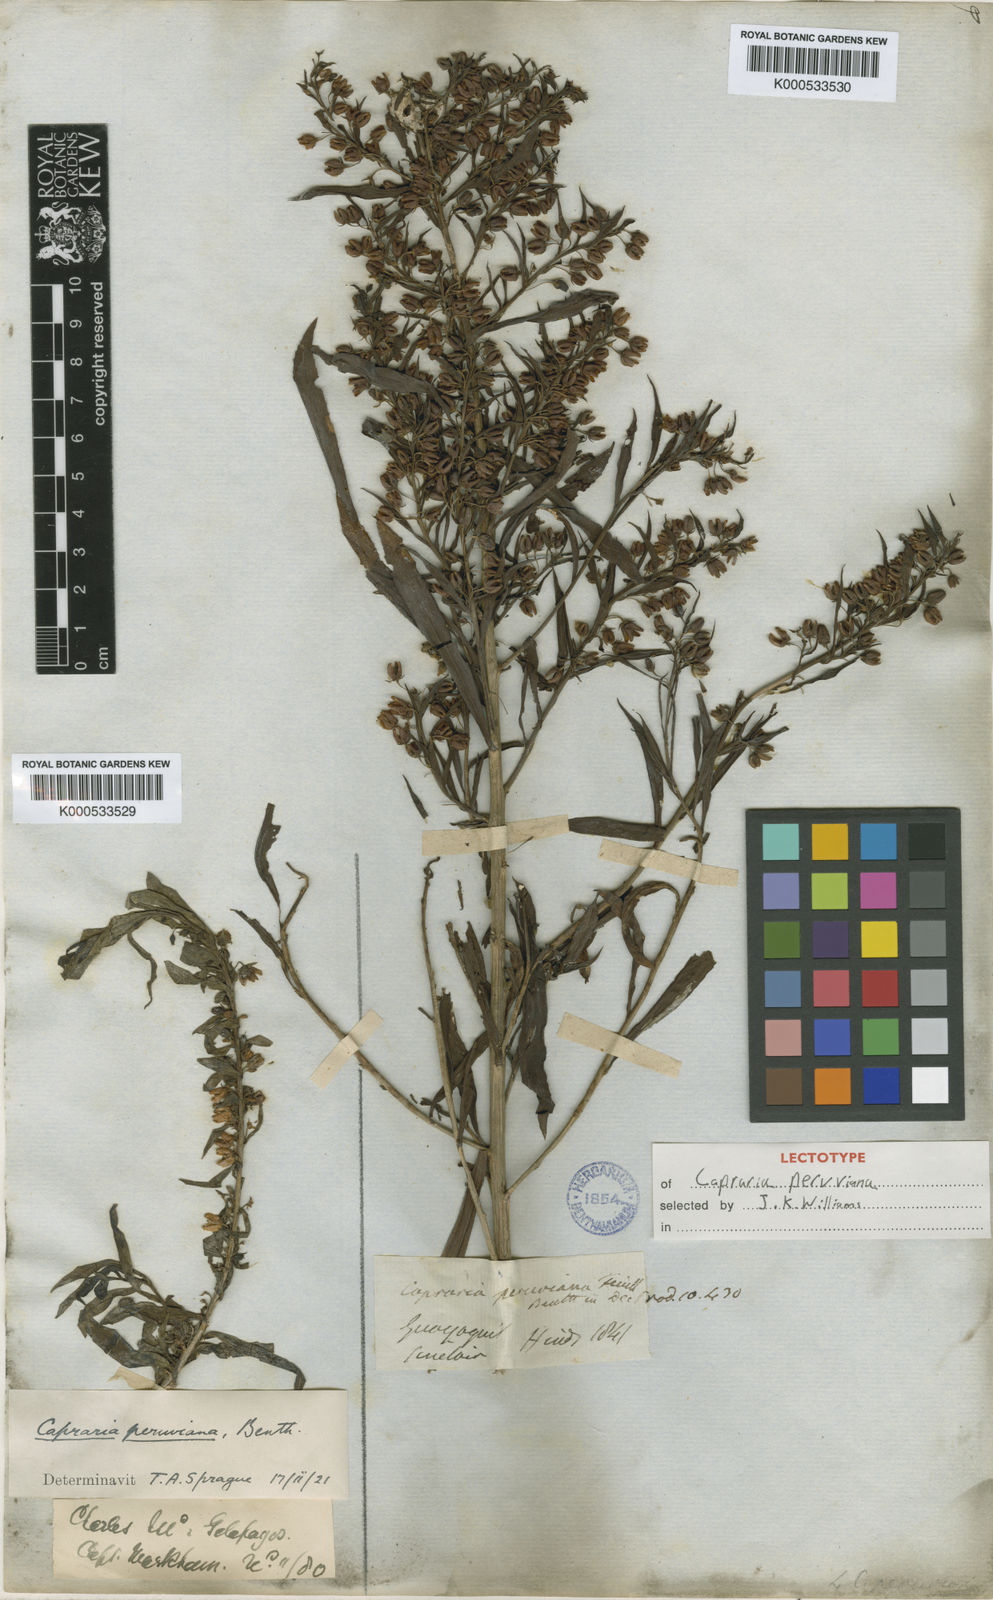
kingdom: Plantae
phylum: Tracheophyta
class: Magnoliopsida
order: Lamiales
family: Scrophulariaceae
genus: Capraria
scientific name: Capraria peruviana
